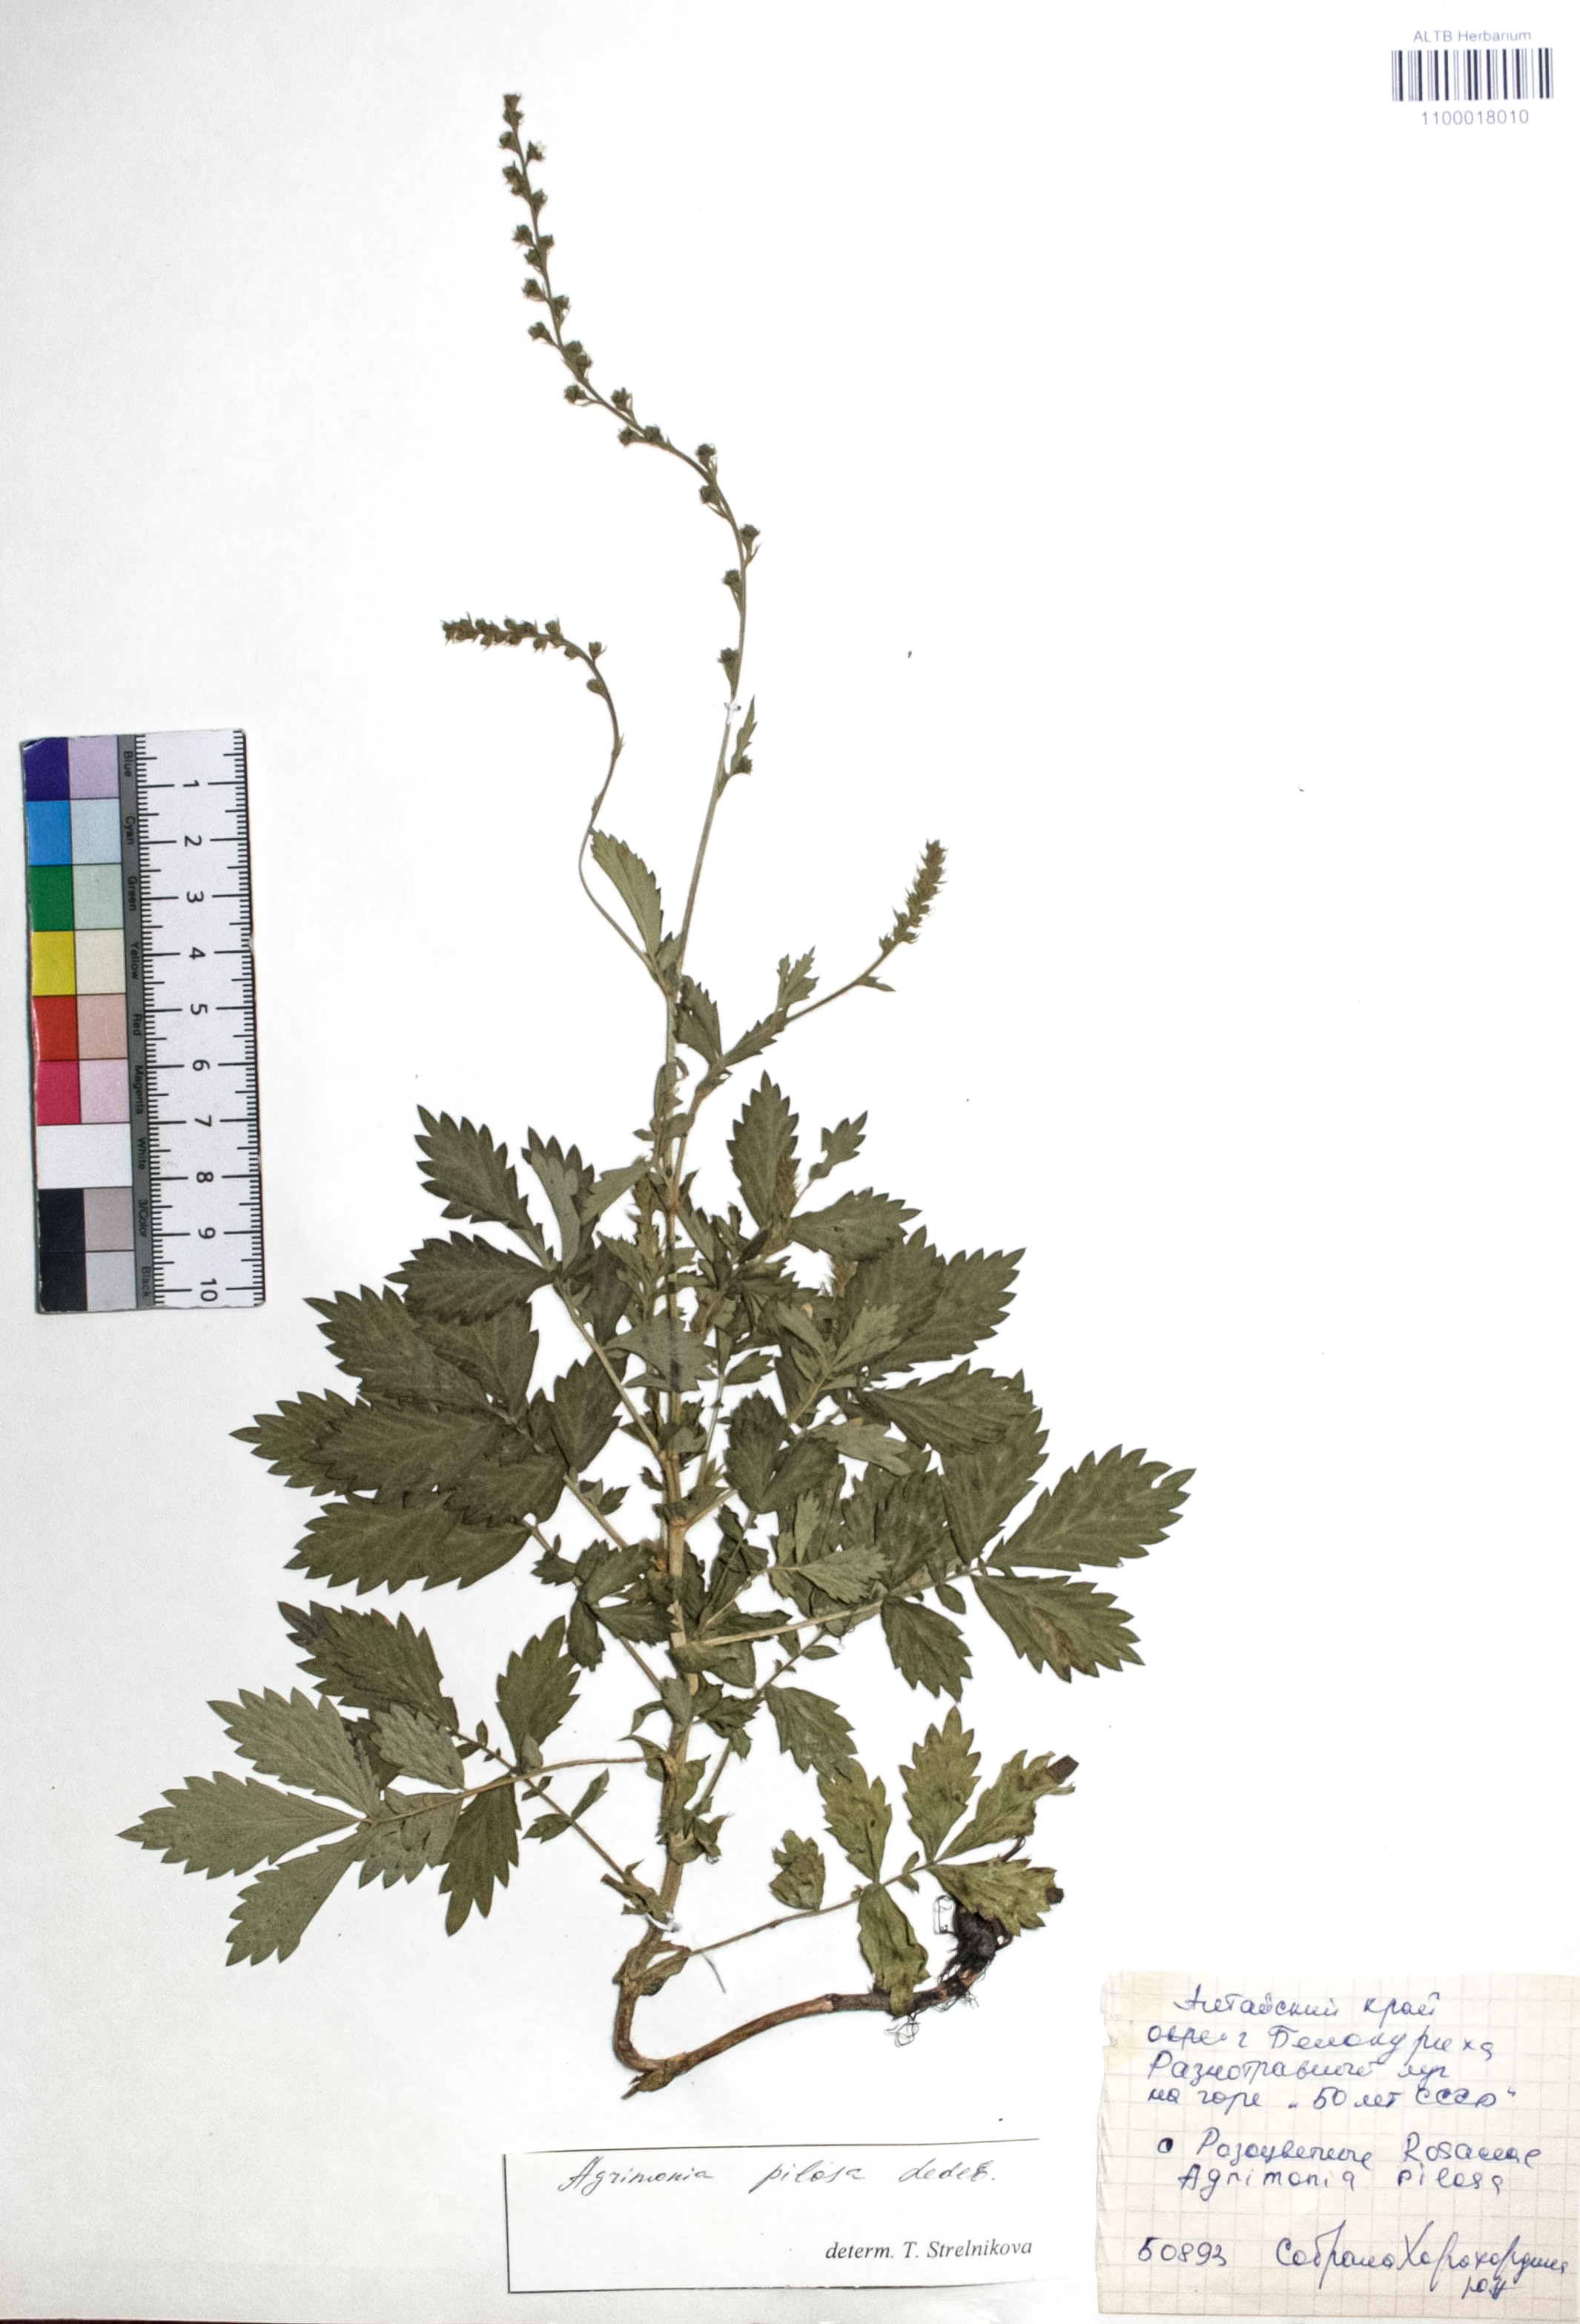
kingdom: Plantae
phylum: Tracheophyta
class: Magnoliopsida
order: Rosales
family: Rosaceae
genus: Agrimonia
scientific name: Agrimonia pilosa
